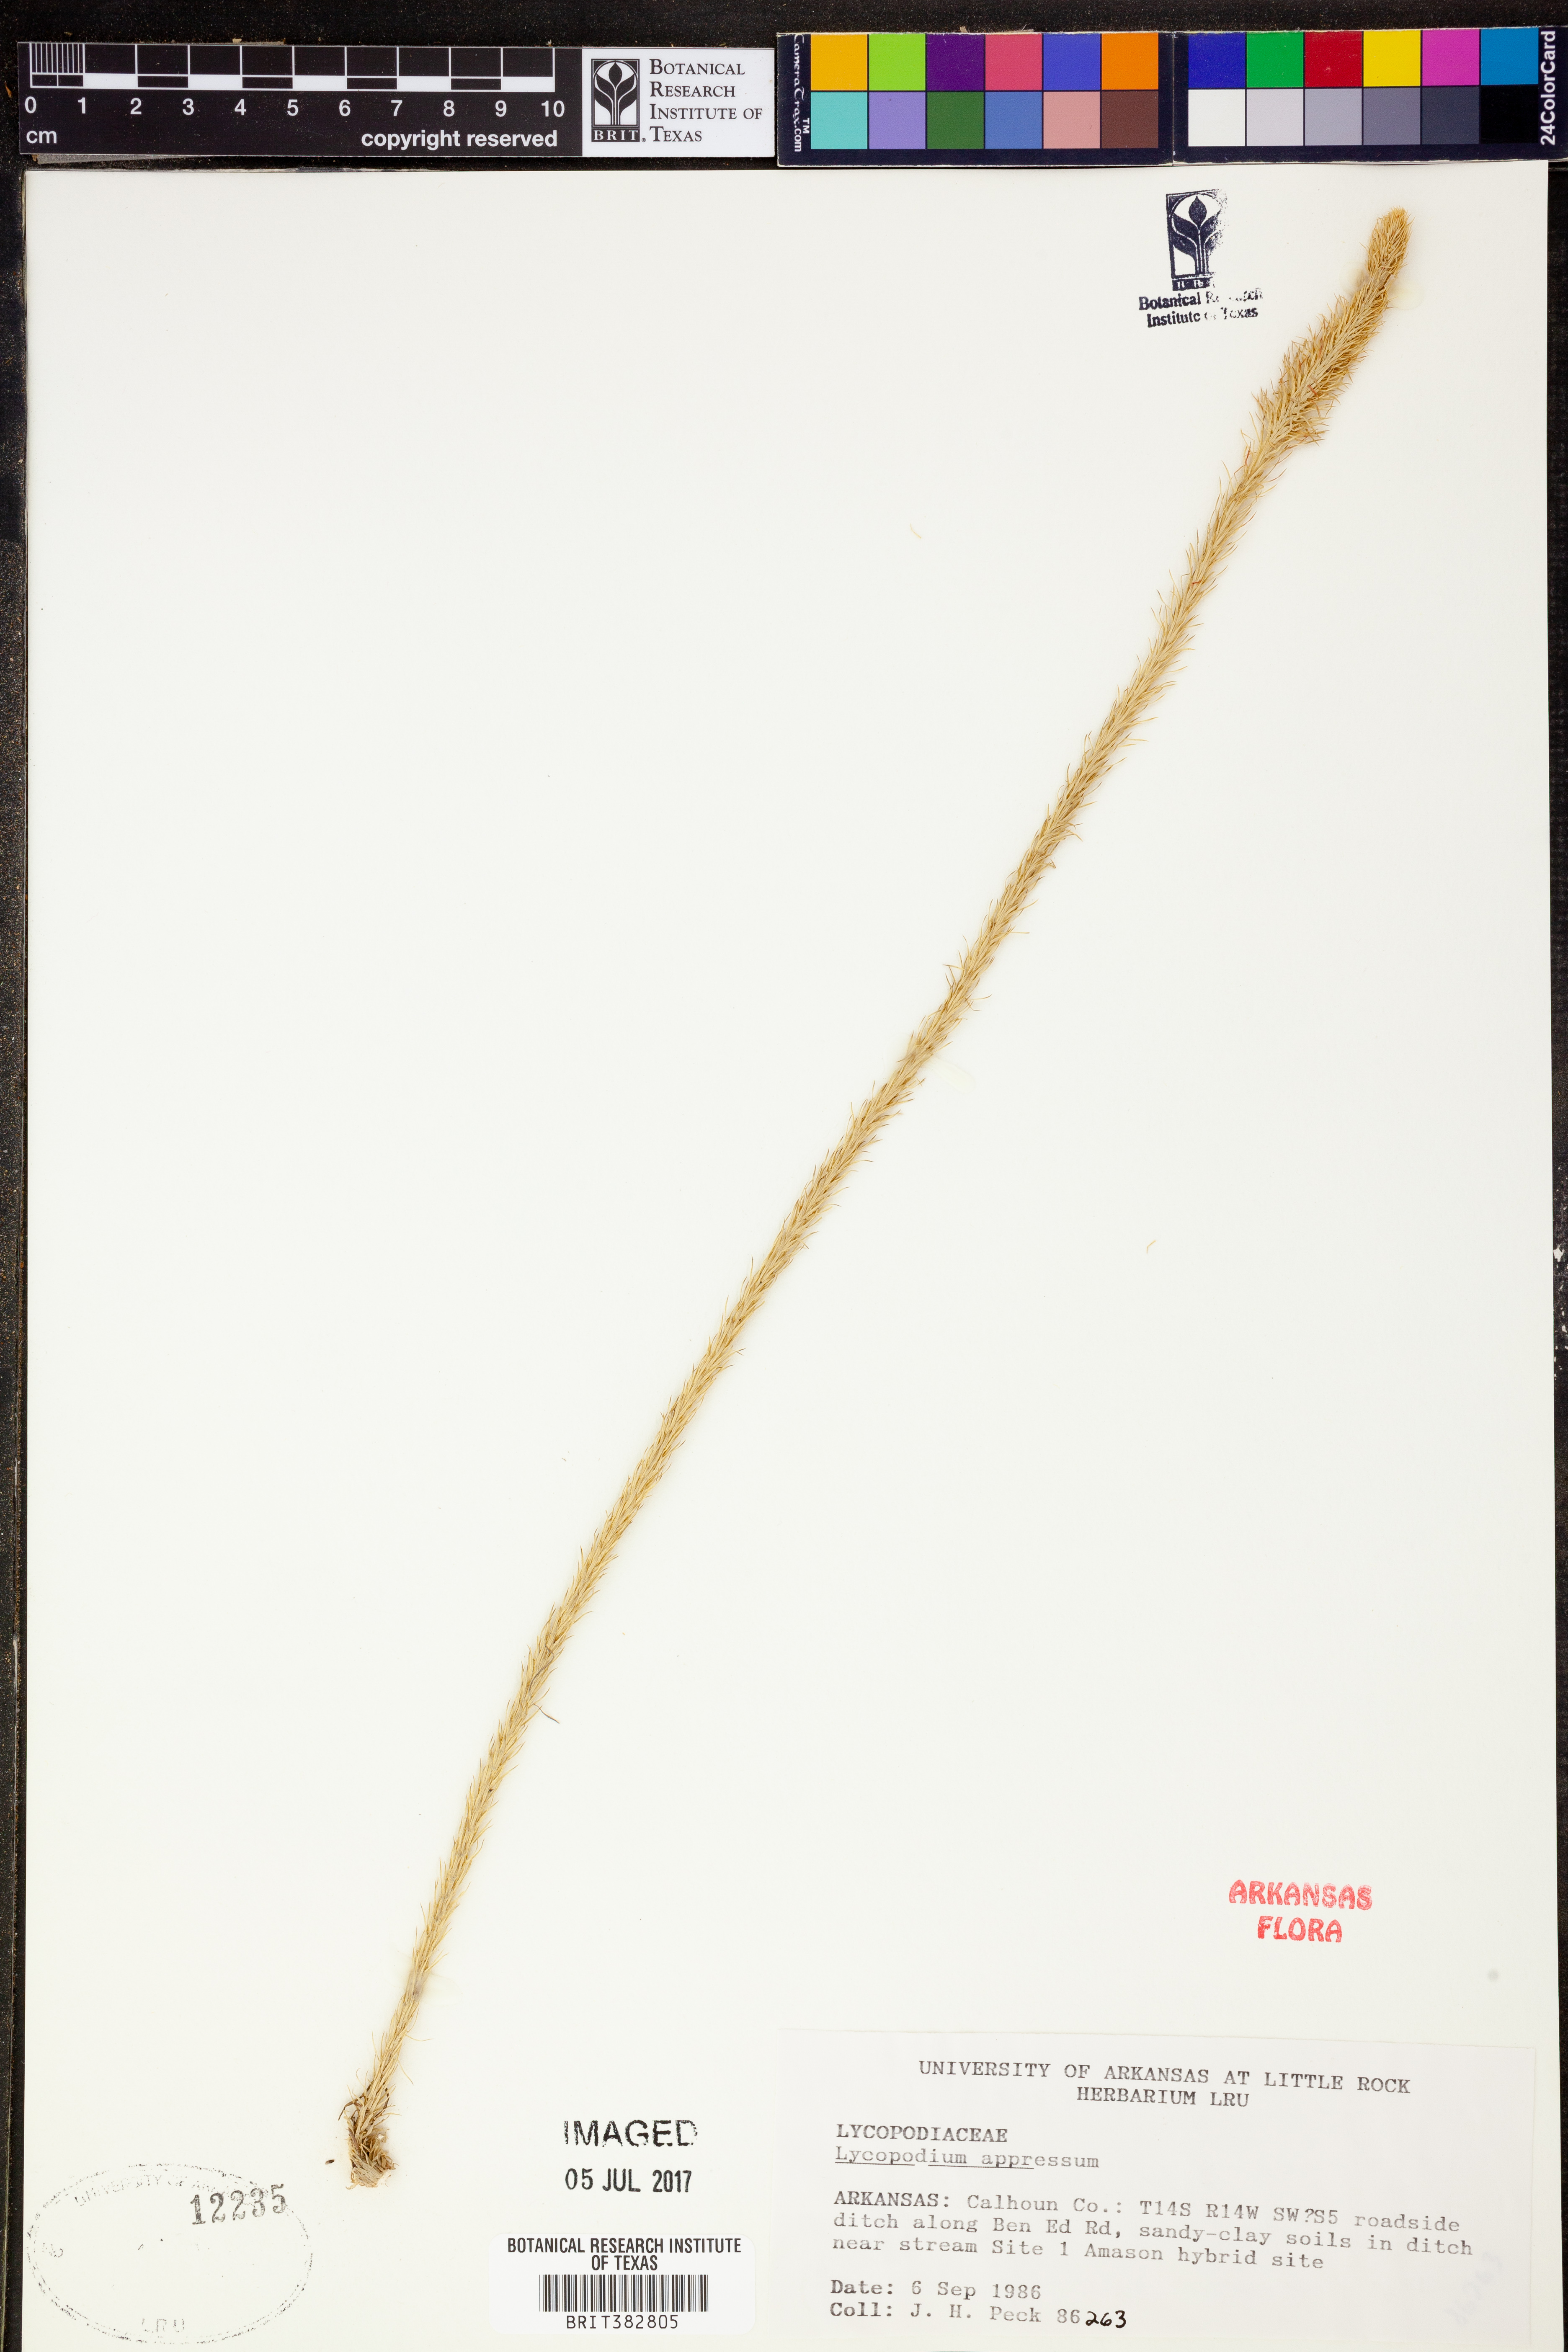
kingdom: Plantae
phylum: Tracheophyta
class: Lycopodiopsida
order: Lycopodiales
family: Lycopodiaceae
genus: Lycopodiella
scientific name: Lycopodiella appressa
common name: Appressed bog clubmoss
